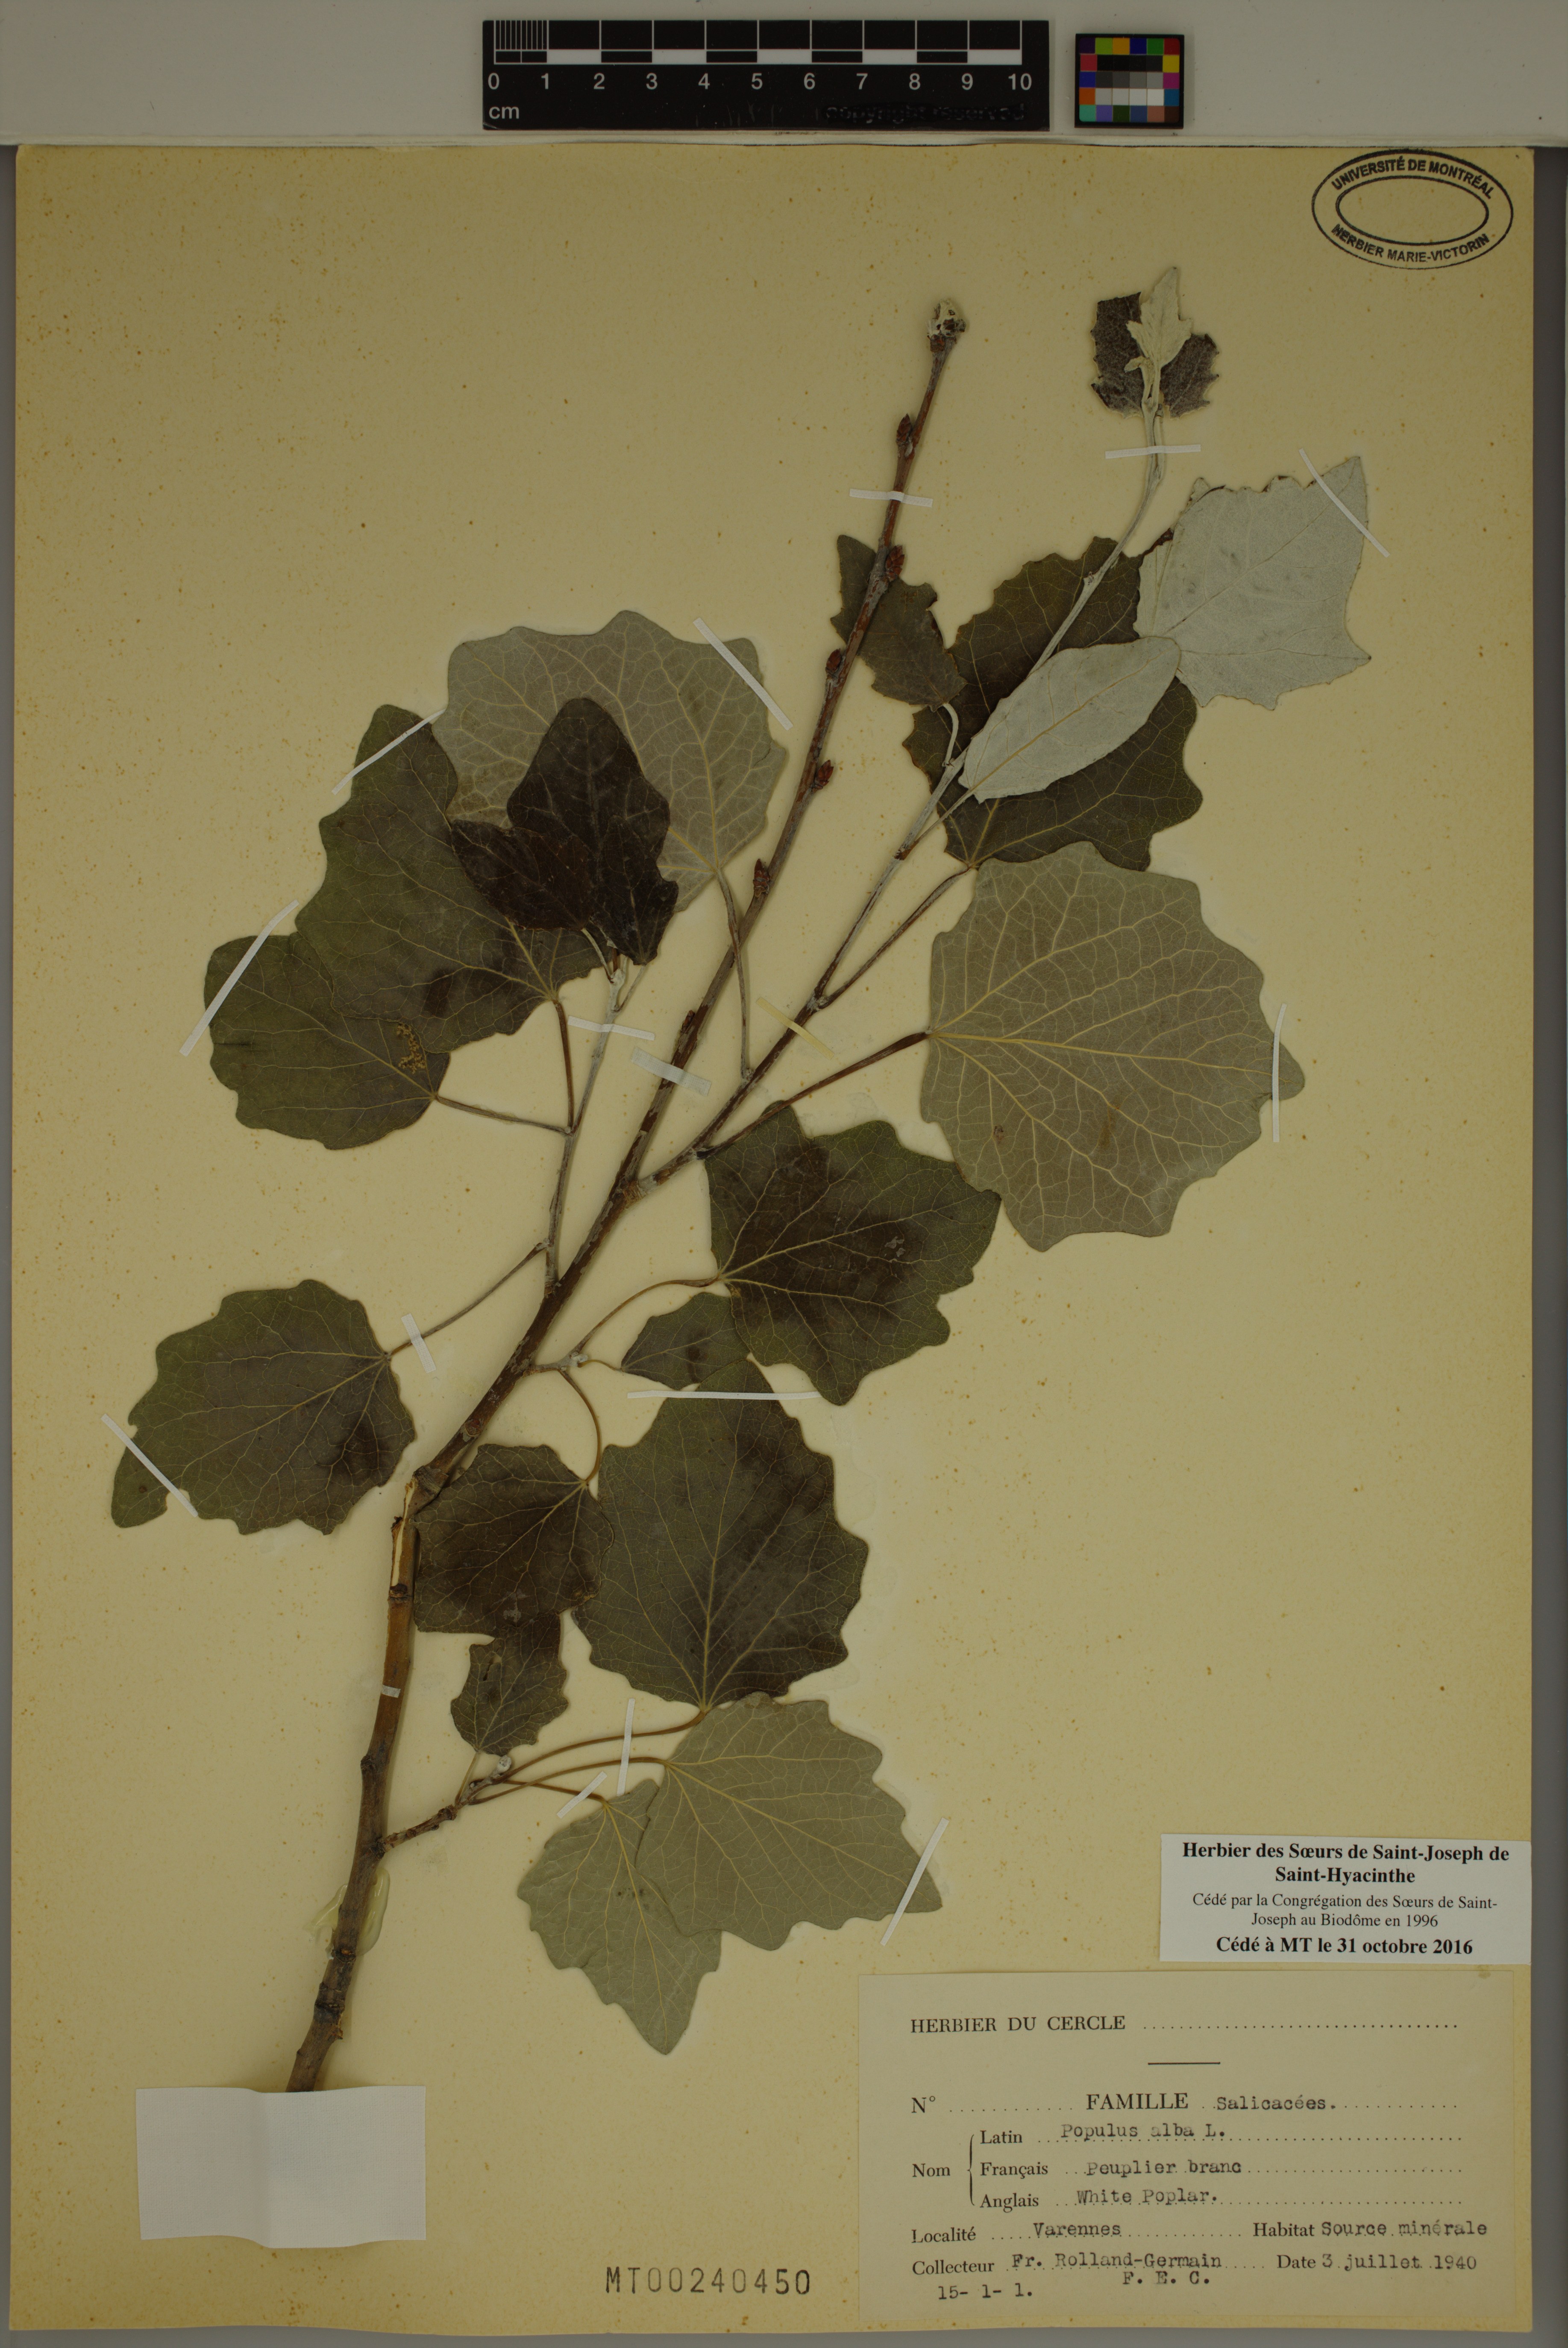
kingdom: Plantae
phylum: Tracheophyta
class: Magnoliopsida
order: Malpighiales
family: Salicaceae
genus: Populus
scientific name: Populus alba
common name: White poplar
